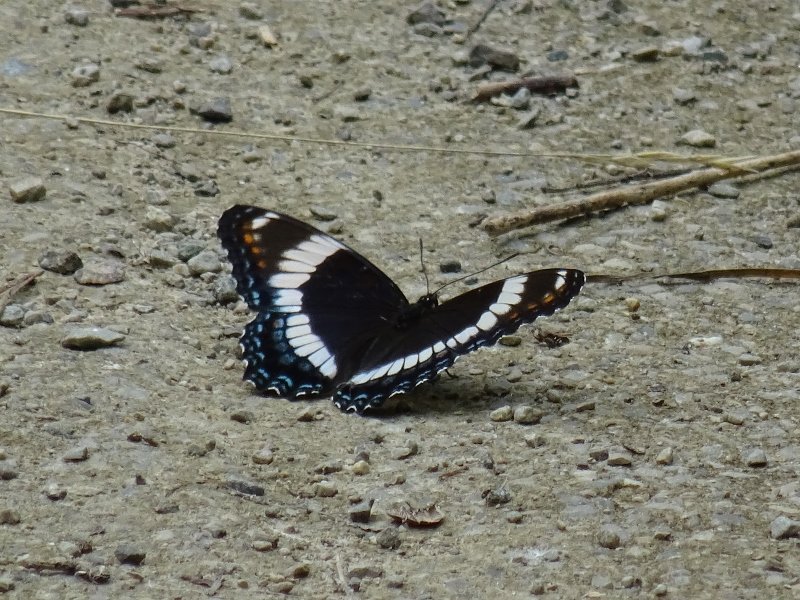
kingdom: Animalia
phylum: Arthropoda
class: Insecta
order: Lepidoptera
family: Nymphalidae
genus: Limenitis
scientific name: Limenitis arthemis
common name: Red-spotted Admiral
